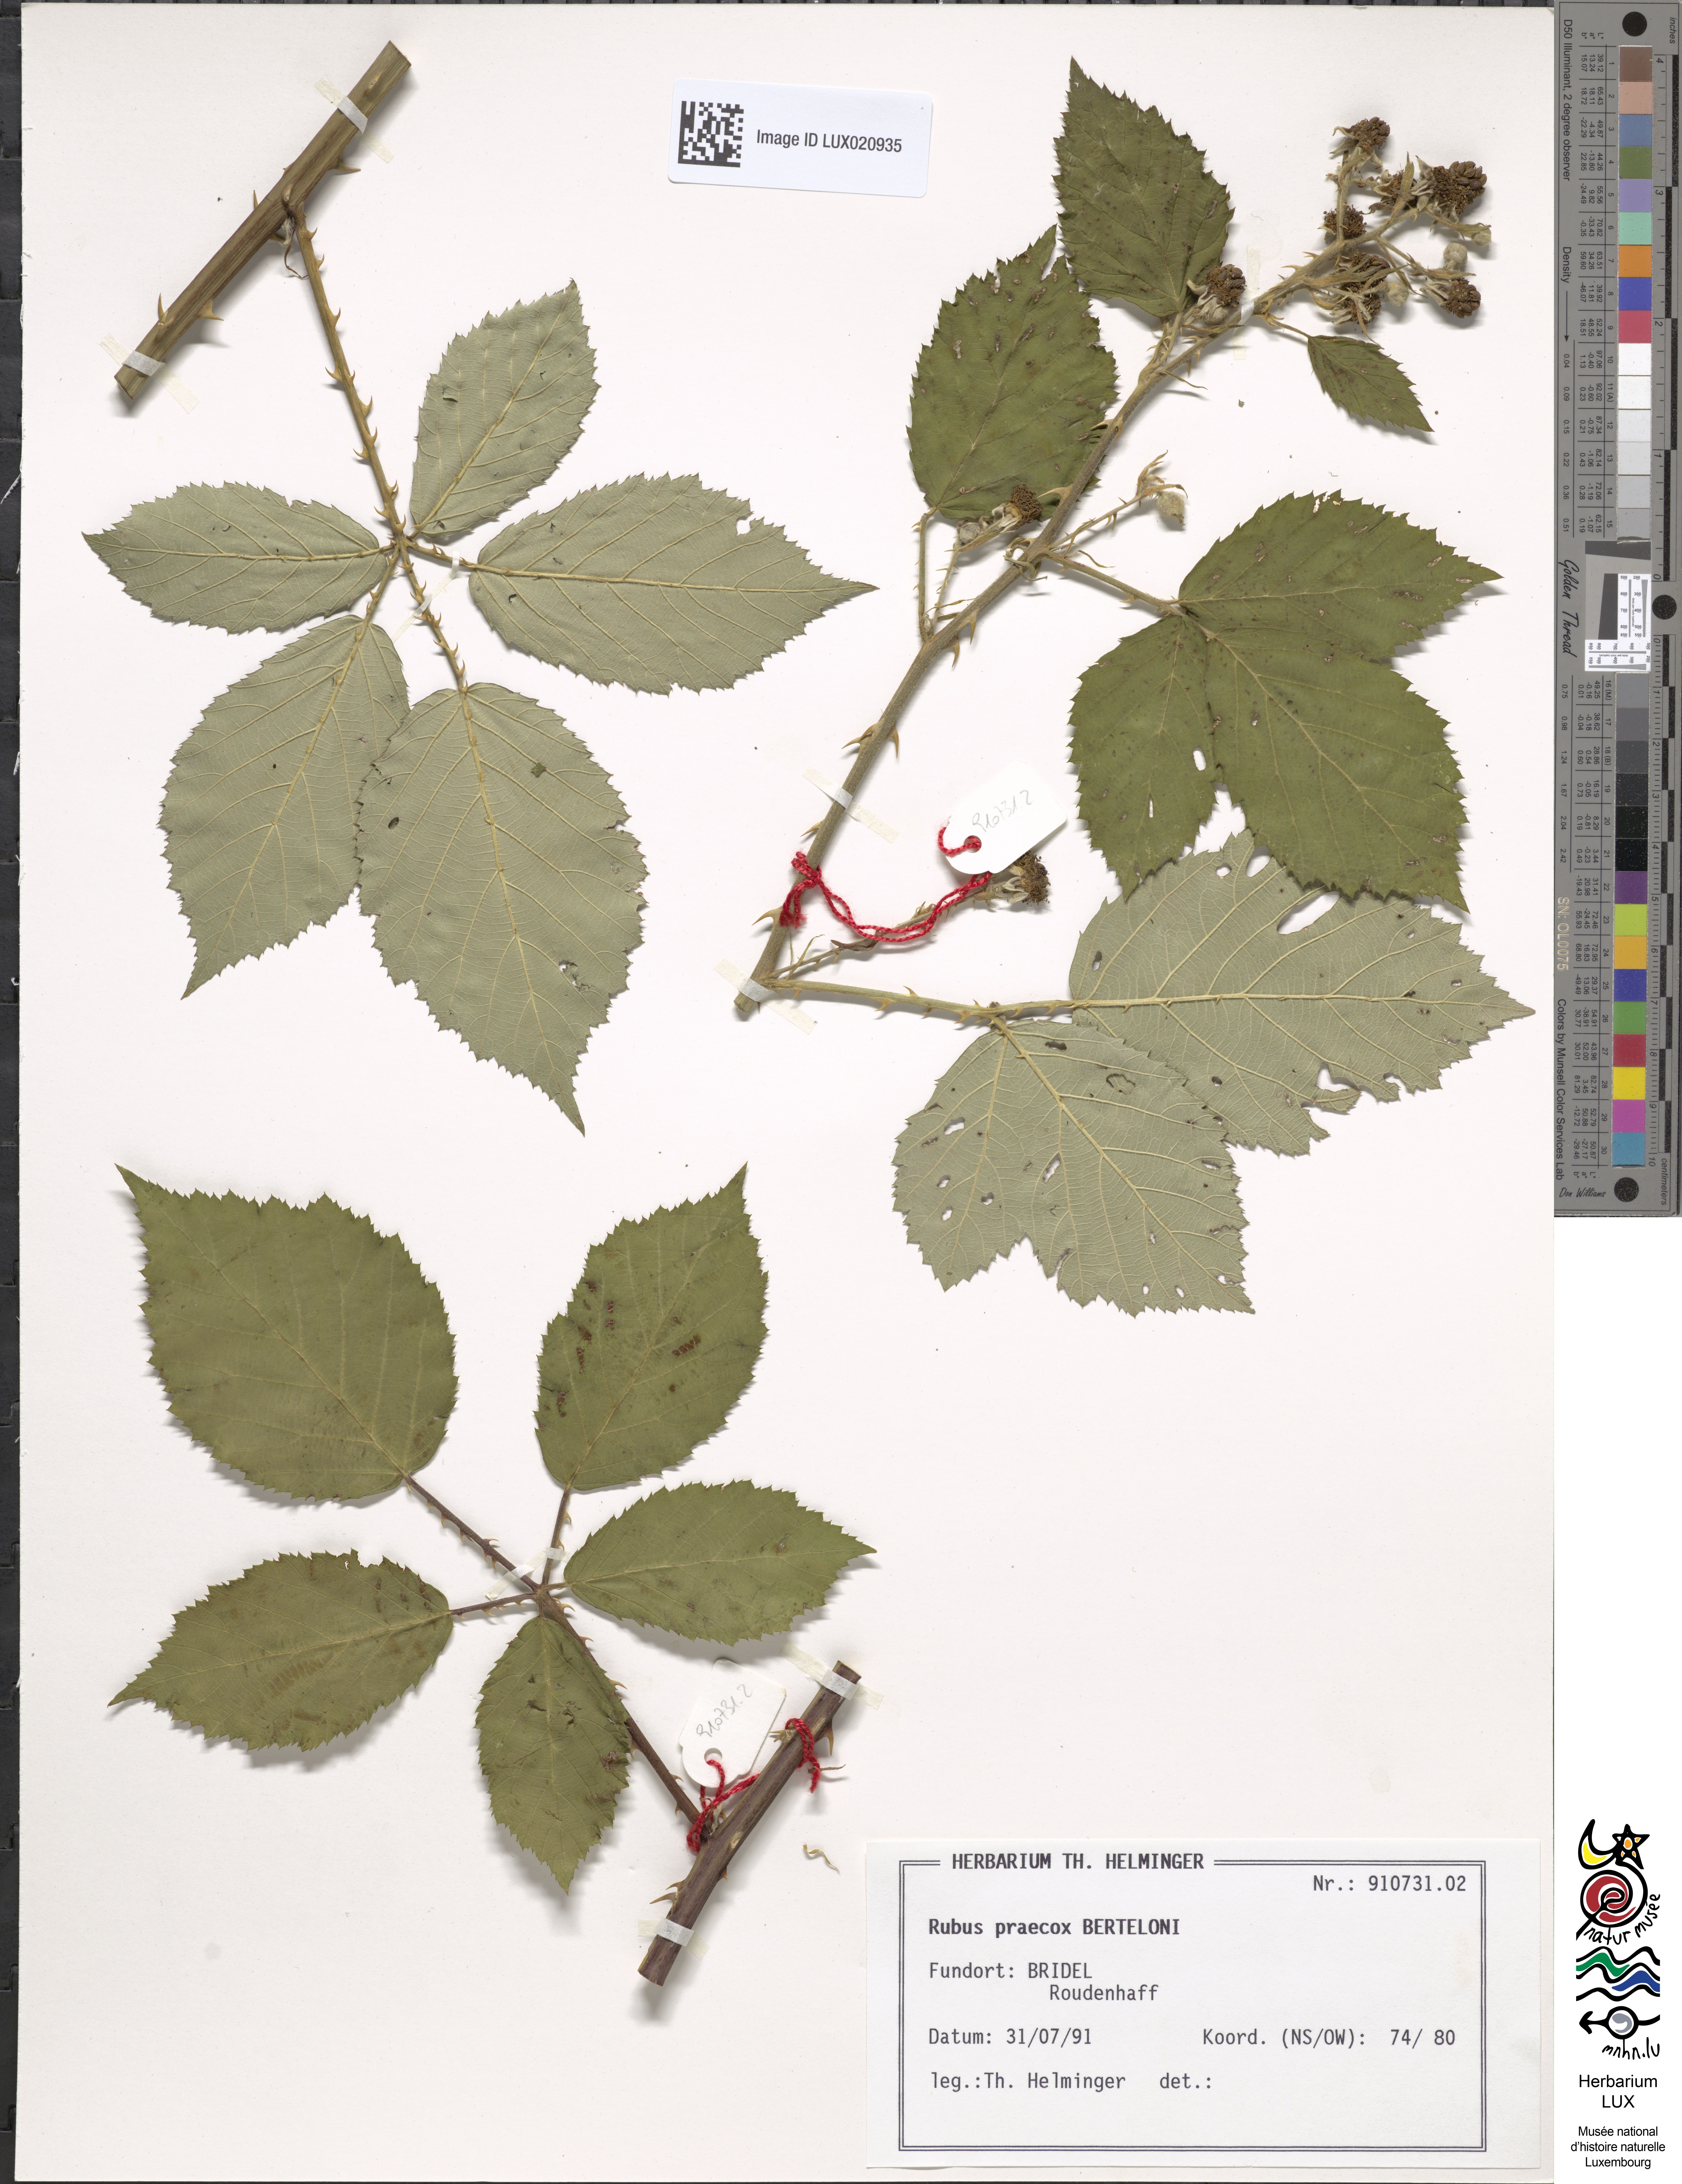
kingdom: Plantae
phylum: Tracheophyta
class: Magnoliopsida
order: Rosales
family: Rosaceae
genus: Rubus
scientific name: Rubus praecox
